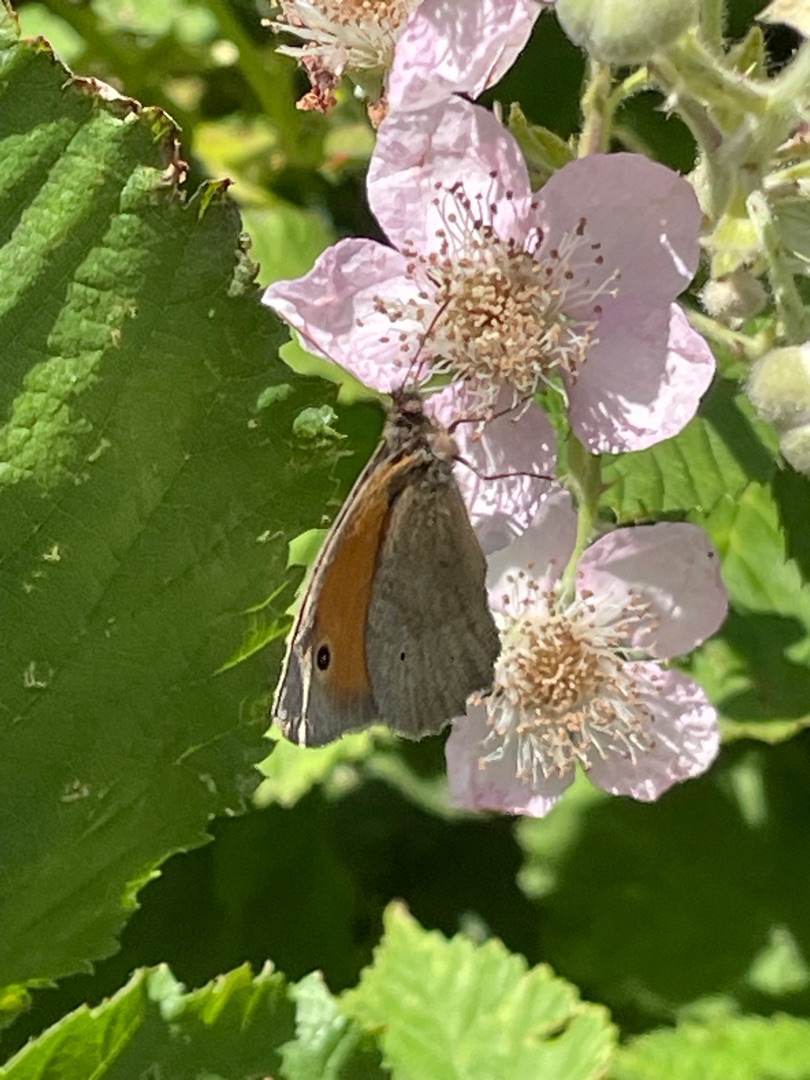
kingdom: Animalia
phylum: Arthropoda
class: Insecta
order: Lepidoptera
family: Nymphalidae
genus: Maniola
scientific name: Maniola jurtina
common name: Græsrandøje
